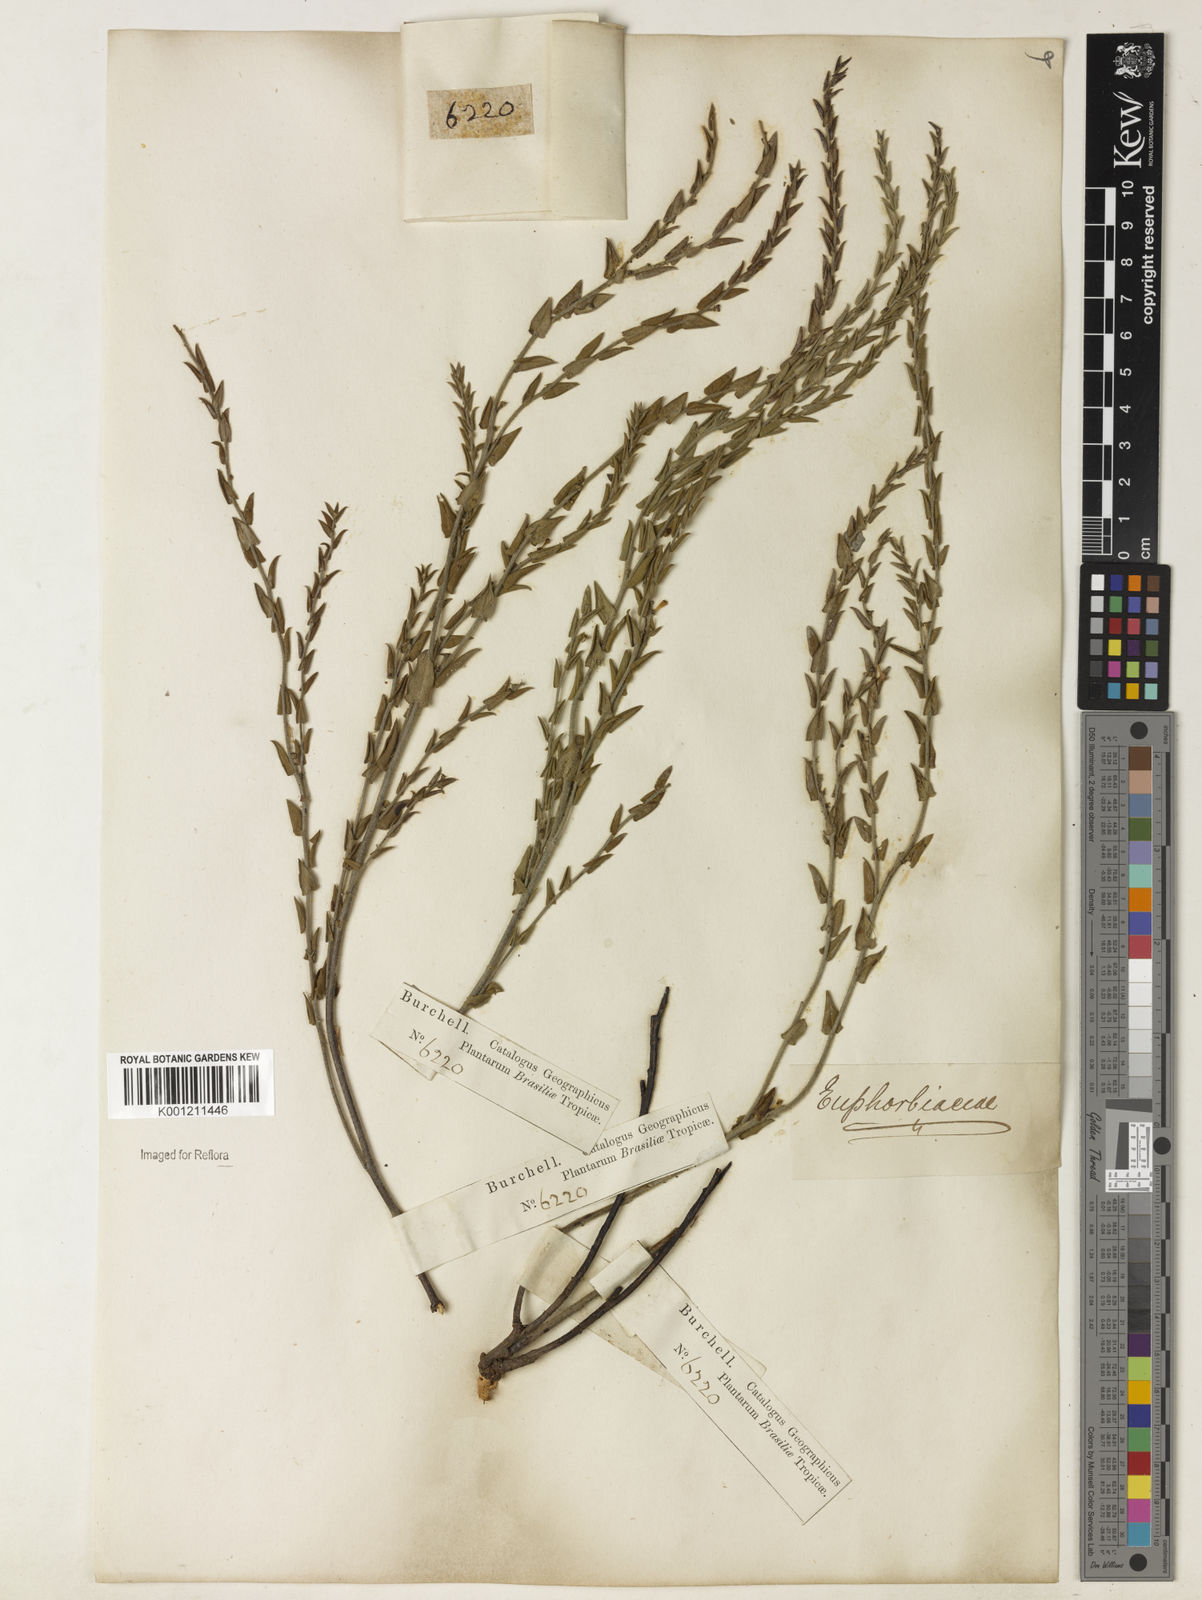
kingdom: Plantae
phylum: Tracheophyta
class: Magnoliopsida
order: Malpighiales
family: Euphorbiaceae
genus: Microstachys
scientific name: Microstachys ditassoides
